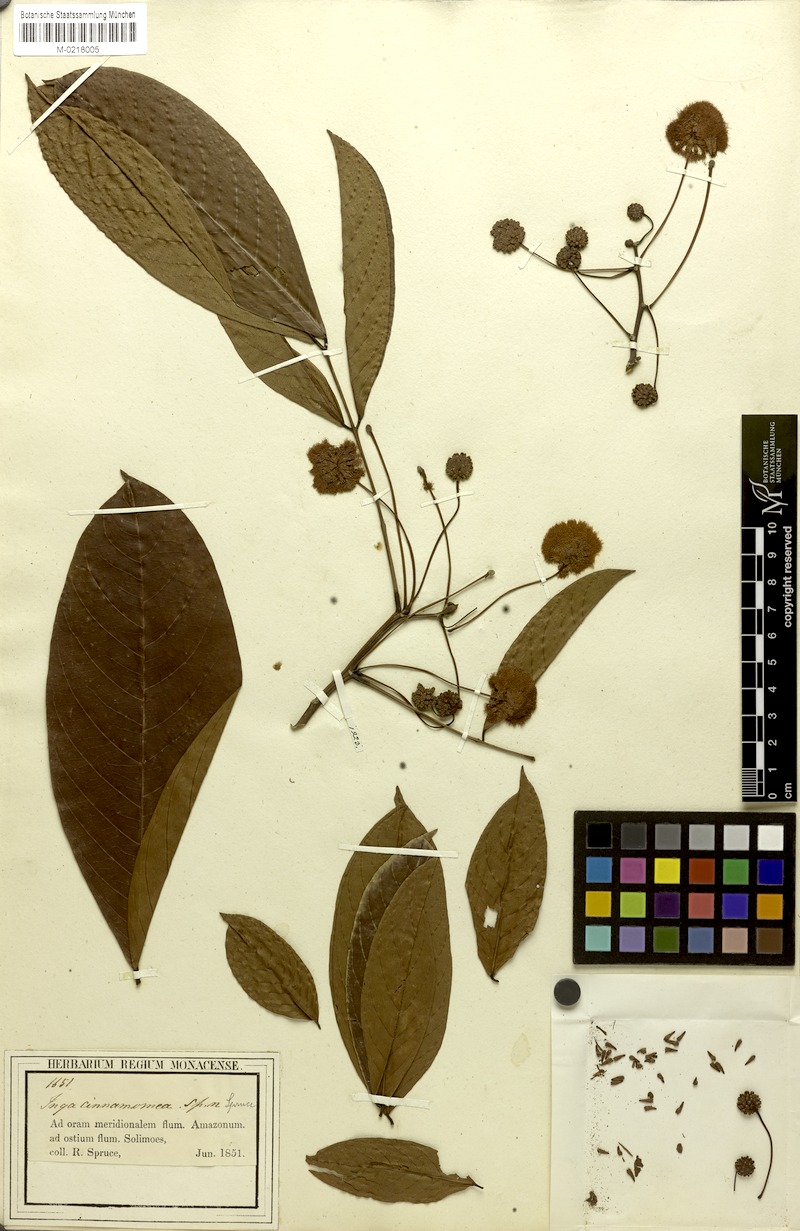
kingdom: Plantae
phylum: Tracheophyta
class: Magnoliopsida
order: Fabales
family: Fabaceae
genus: Inga
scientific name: Inga cinnamomea
